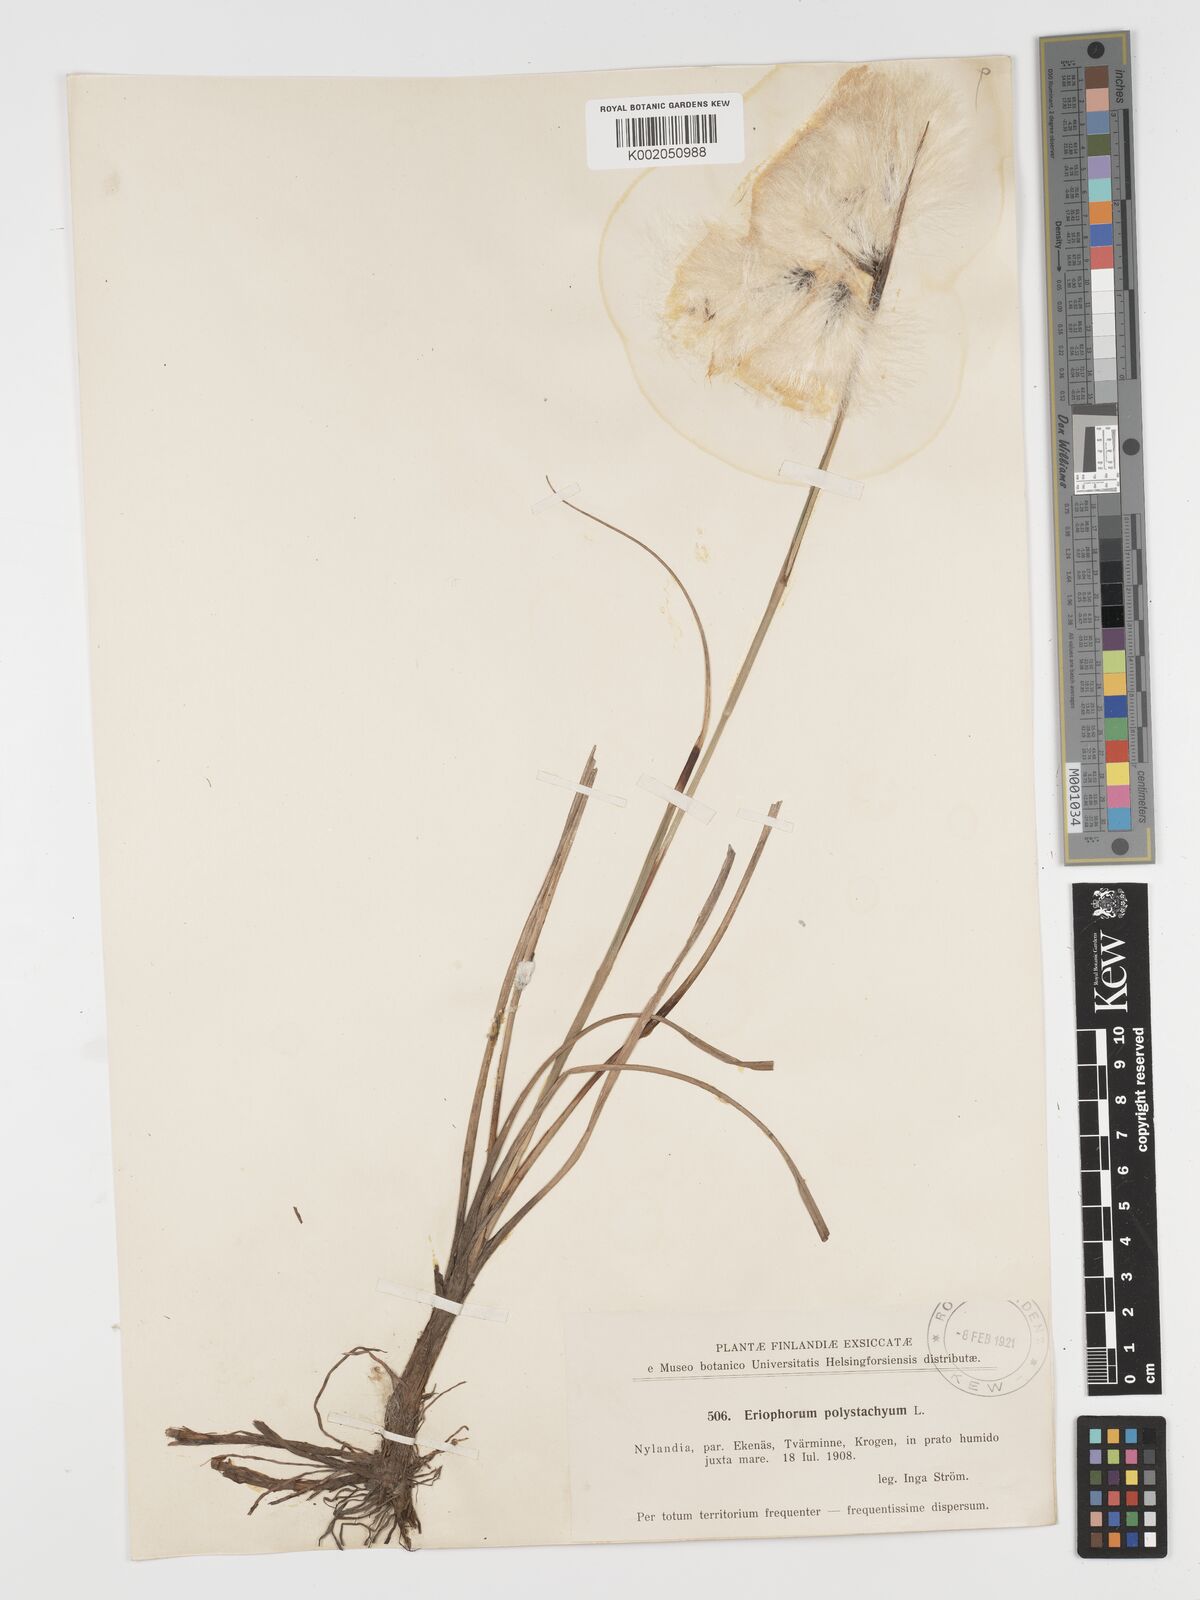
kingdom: Plantae
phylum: Tracheophyta
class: Liliopsida
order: Poales
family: Cyperaceae
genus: Eriophorum
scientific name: Eriophorum angustifolium
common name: Common cottongrass
